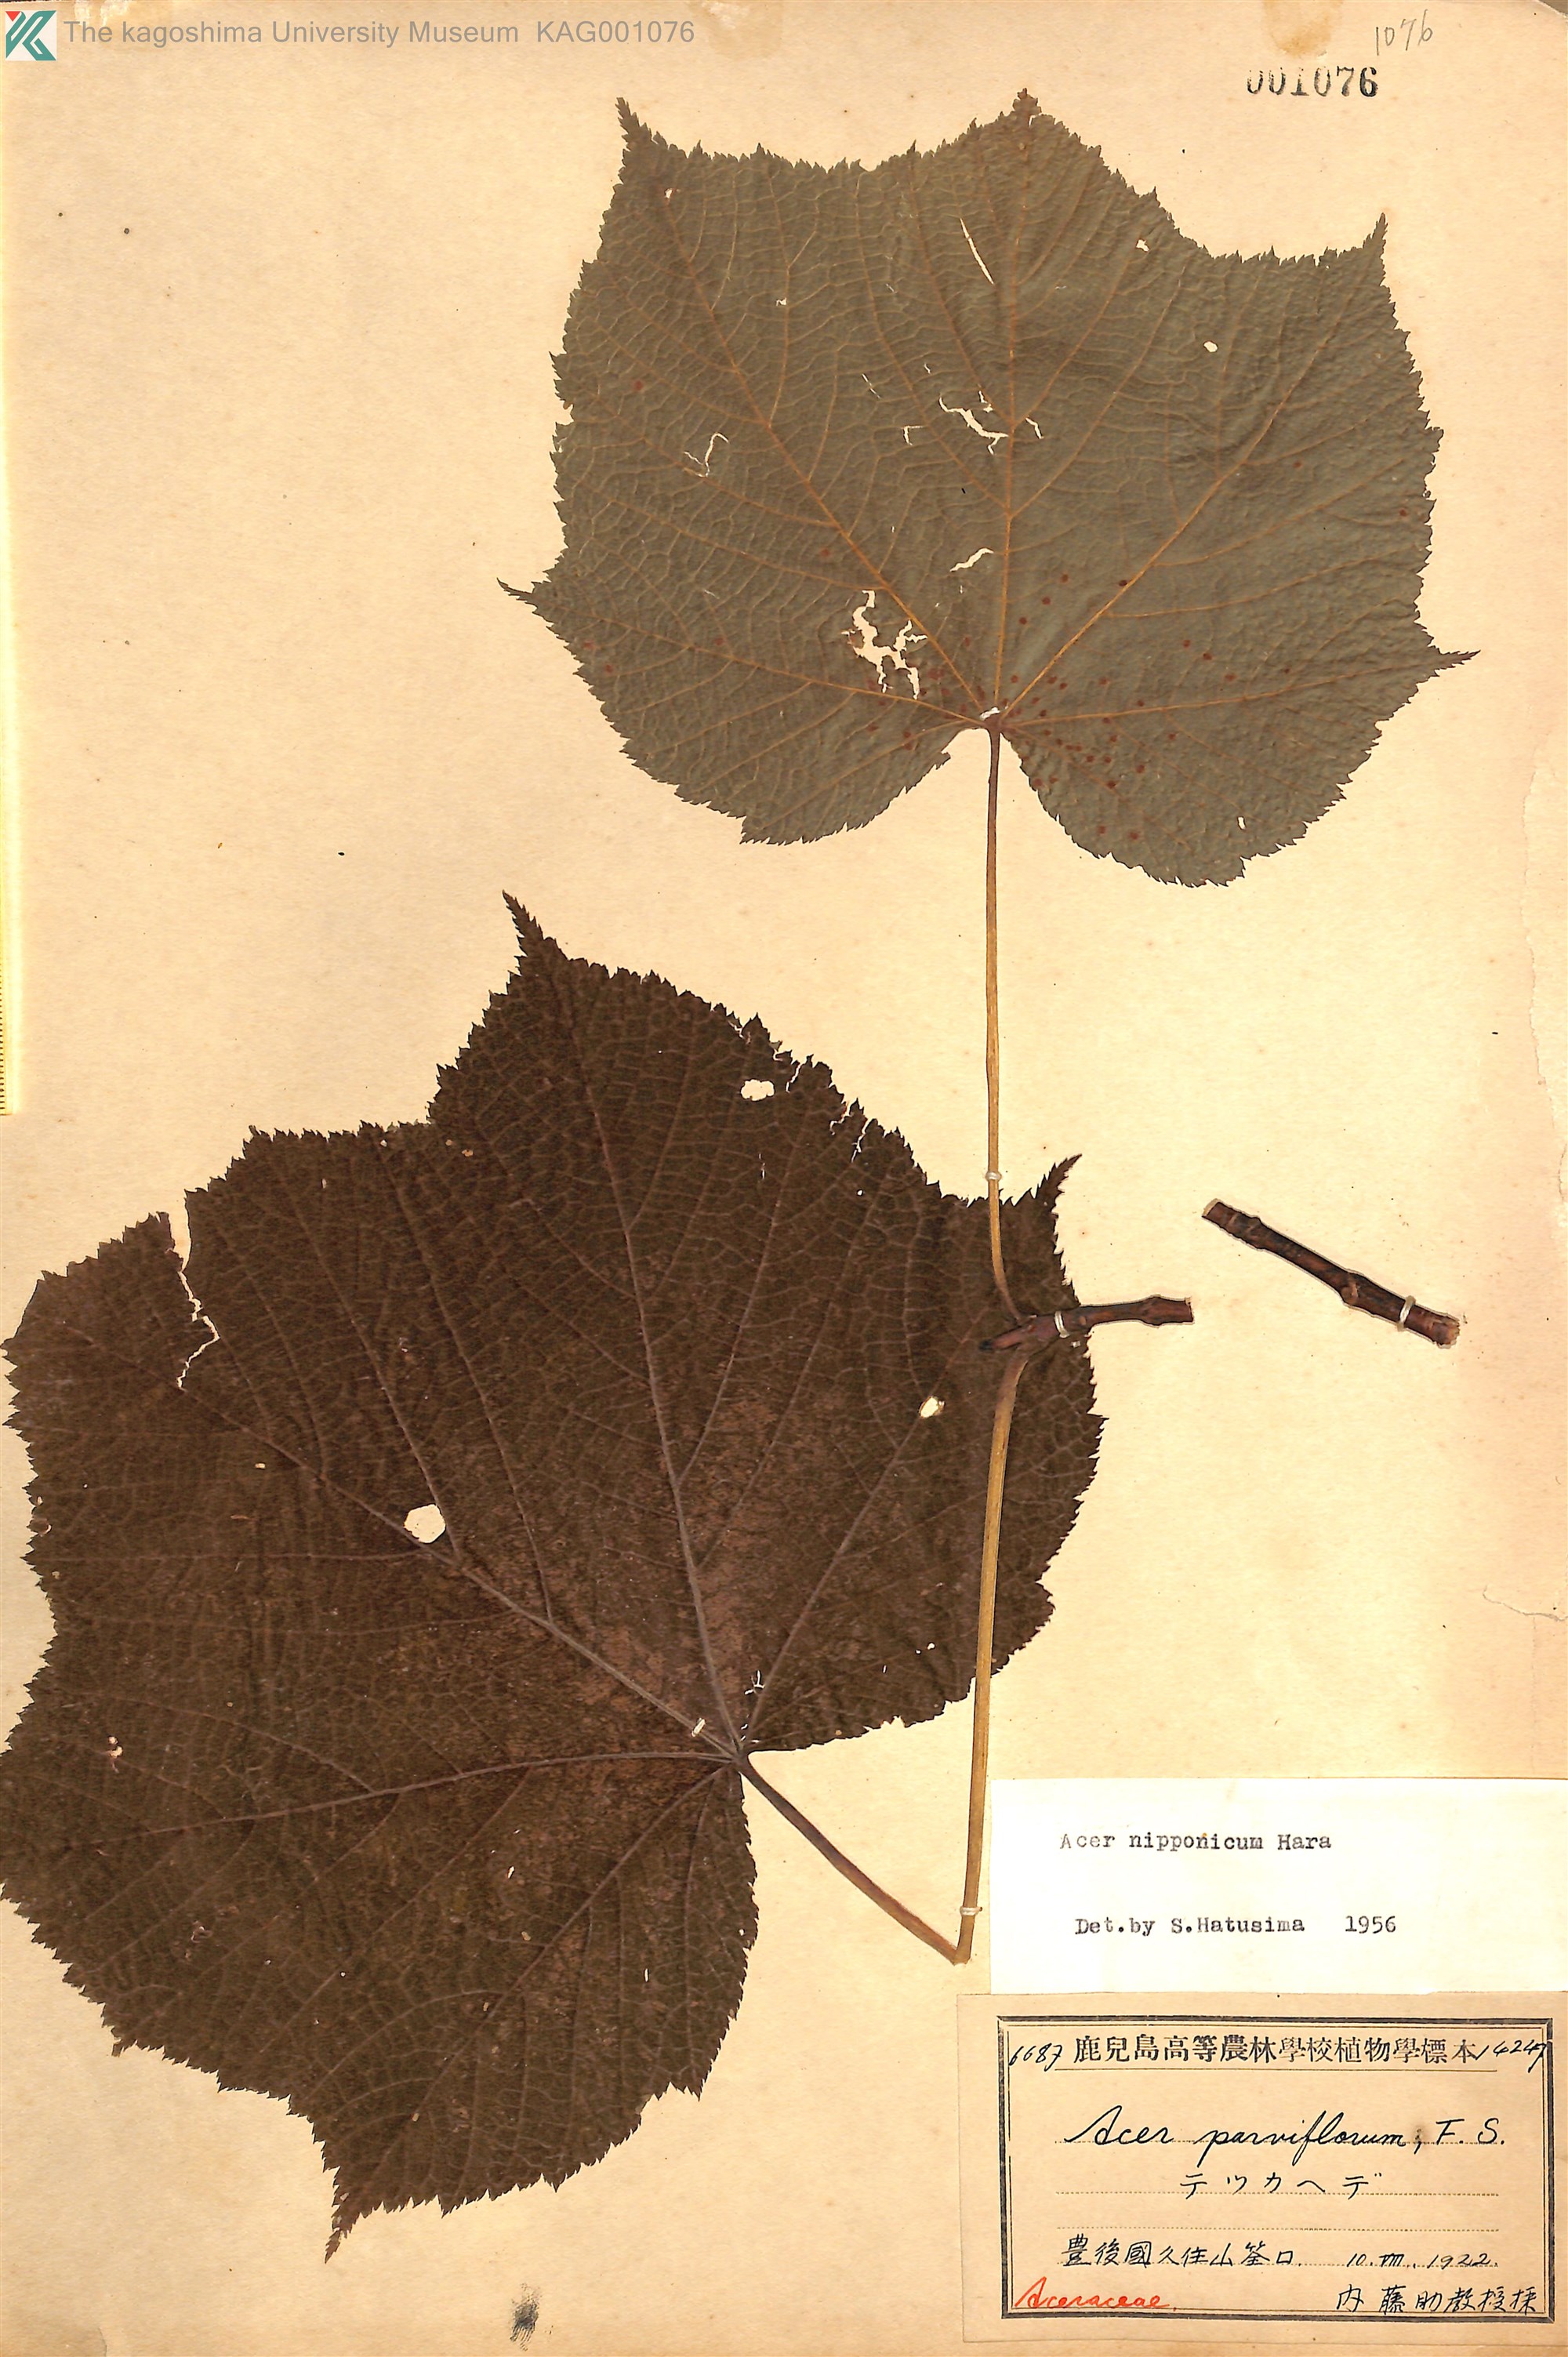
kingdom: Plantae
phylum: Tracheophyta
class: Magnoliopsida
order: Sapindales
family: Sapindaceae
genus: Acer
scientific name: Acer nipponicum
